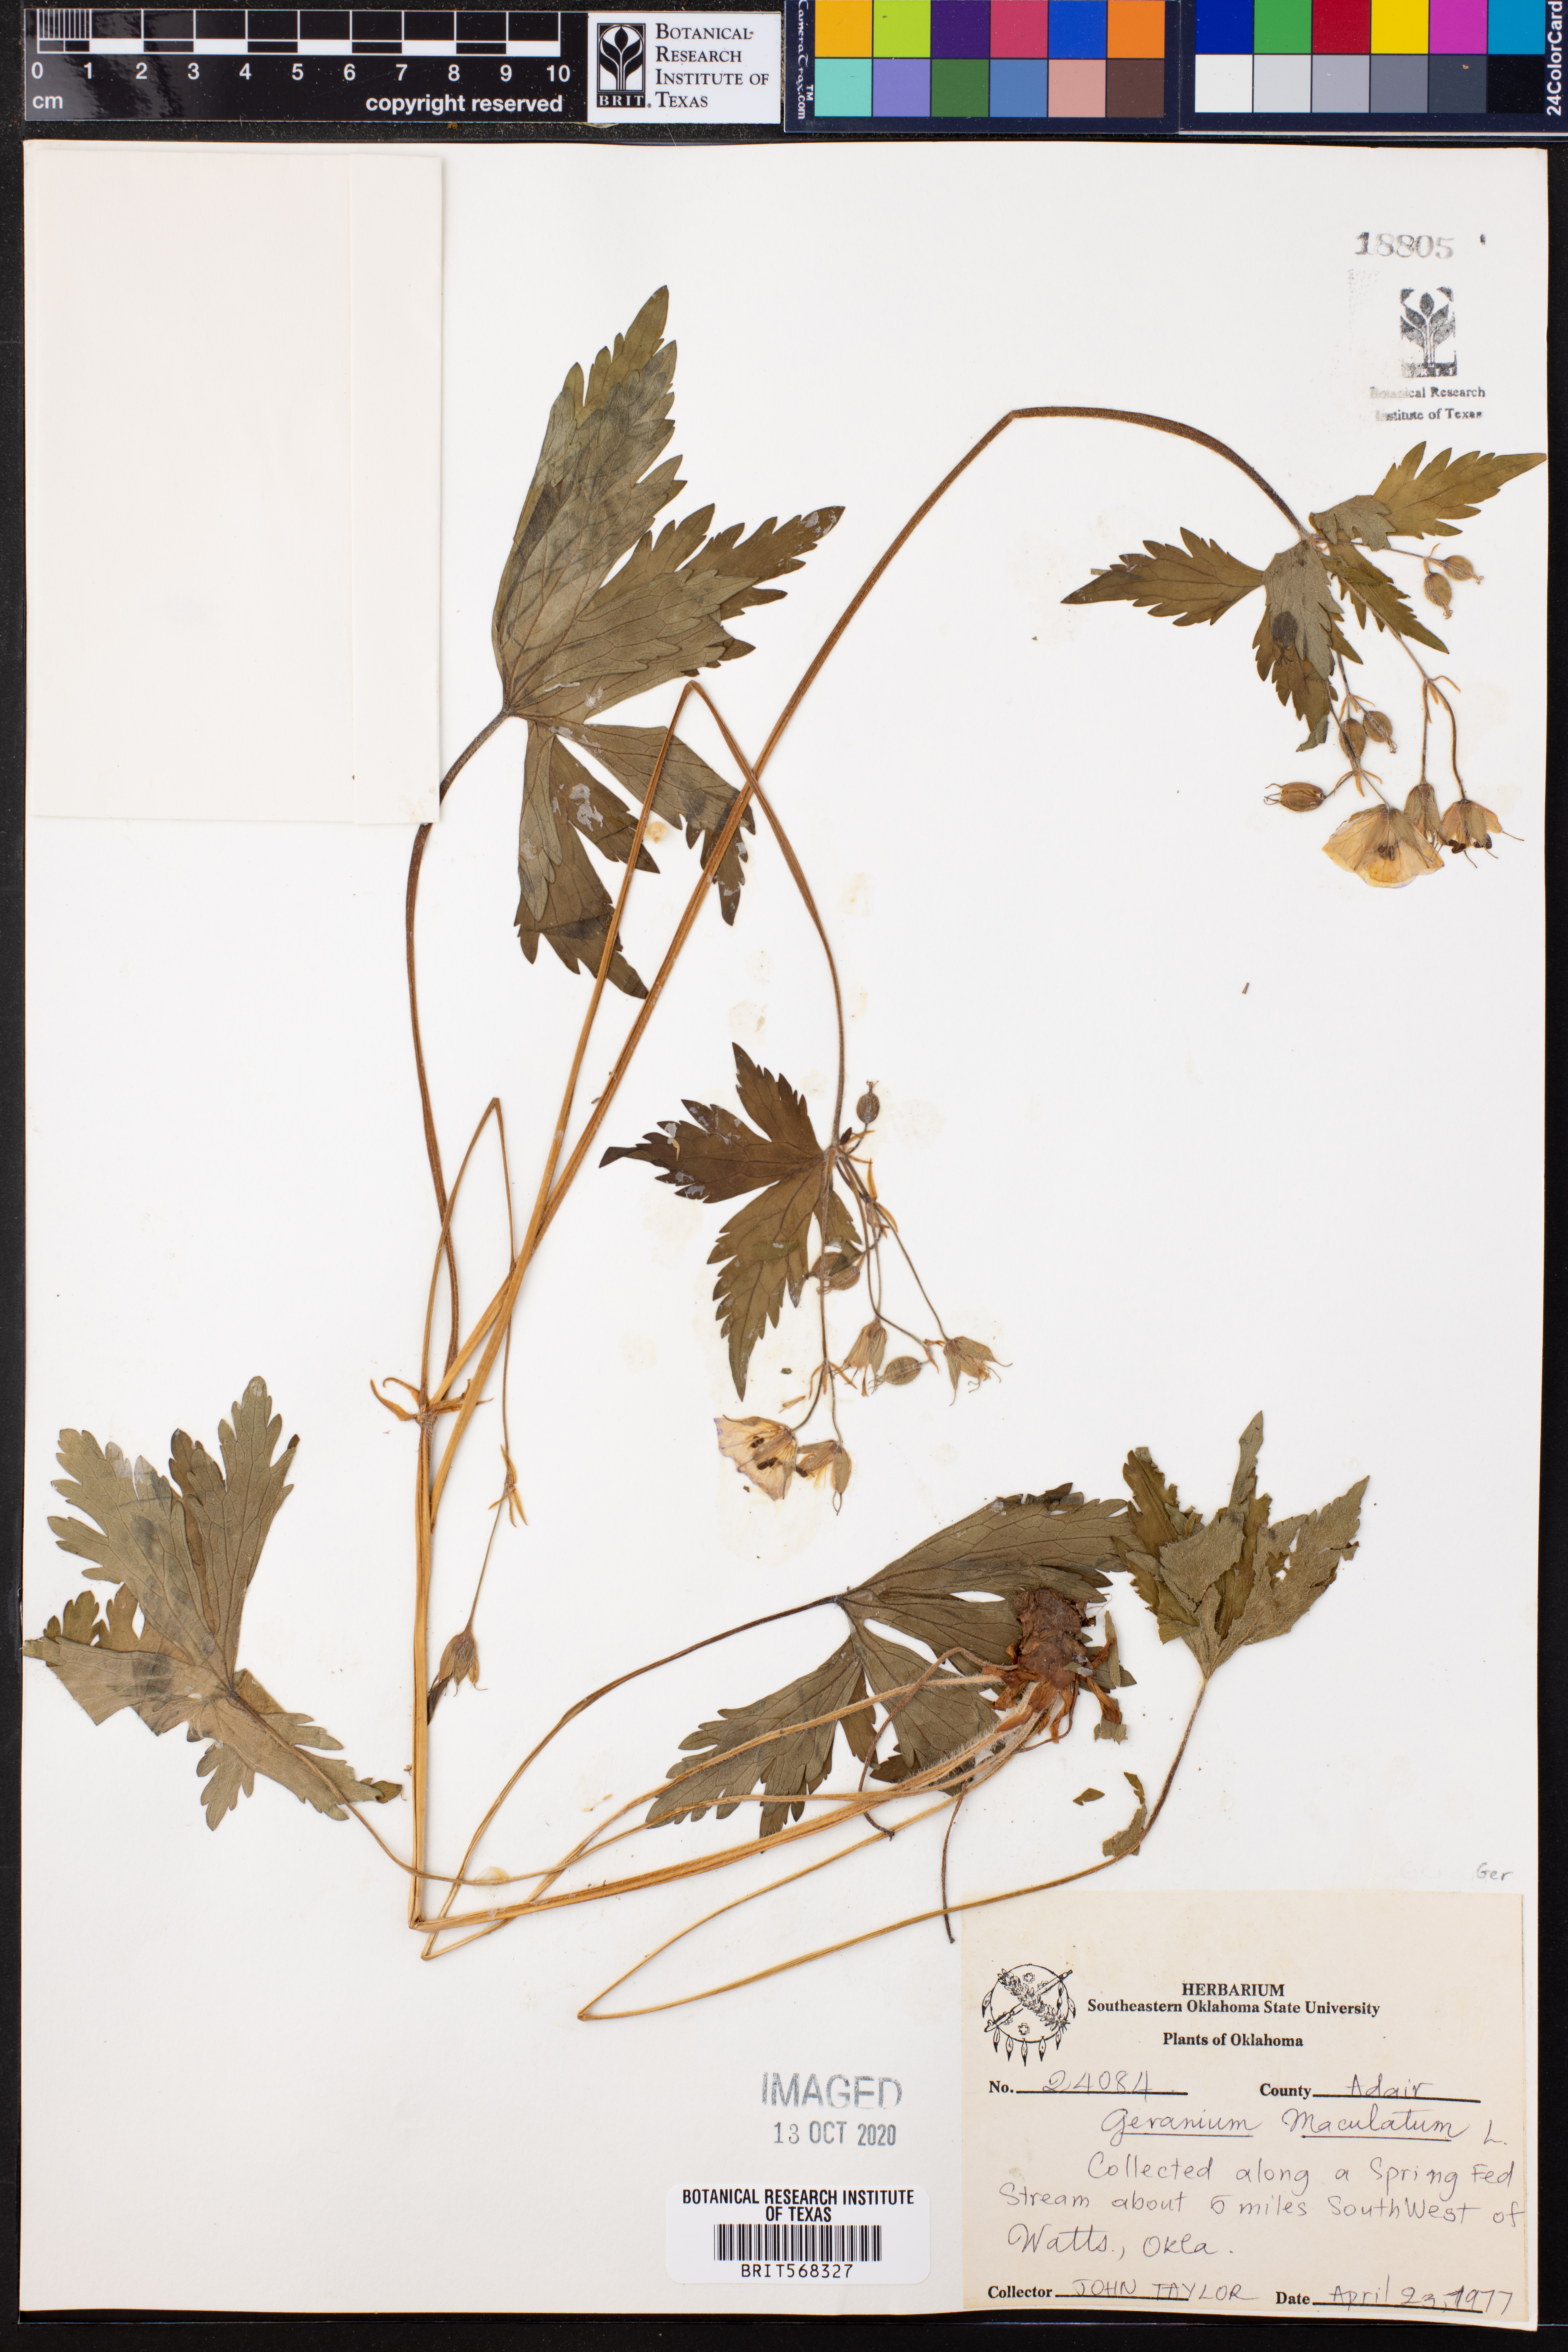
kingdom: Plantae
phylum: Tracheophyta
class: Magnoliopsida
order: Geraniales
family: Geraniaceae
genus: Geranium
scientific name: Geranium maculatum
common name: Spotted geranium
